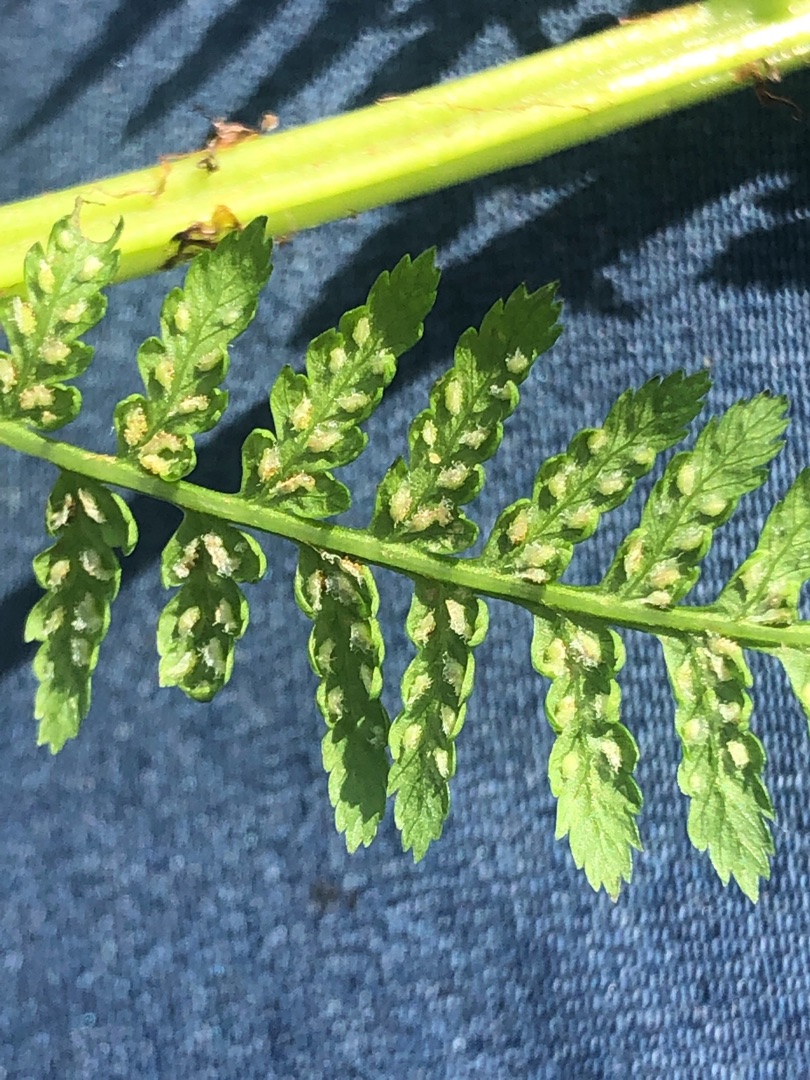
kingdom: Plantae
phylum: Tracheophyta
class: Polypodiopsida
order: Polypodiales
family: Athyriaceae
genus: Athyrium
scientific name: Athyrium filix-femina
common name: Fjerbregne
